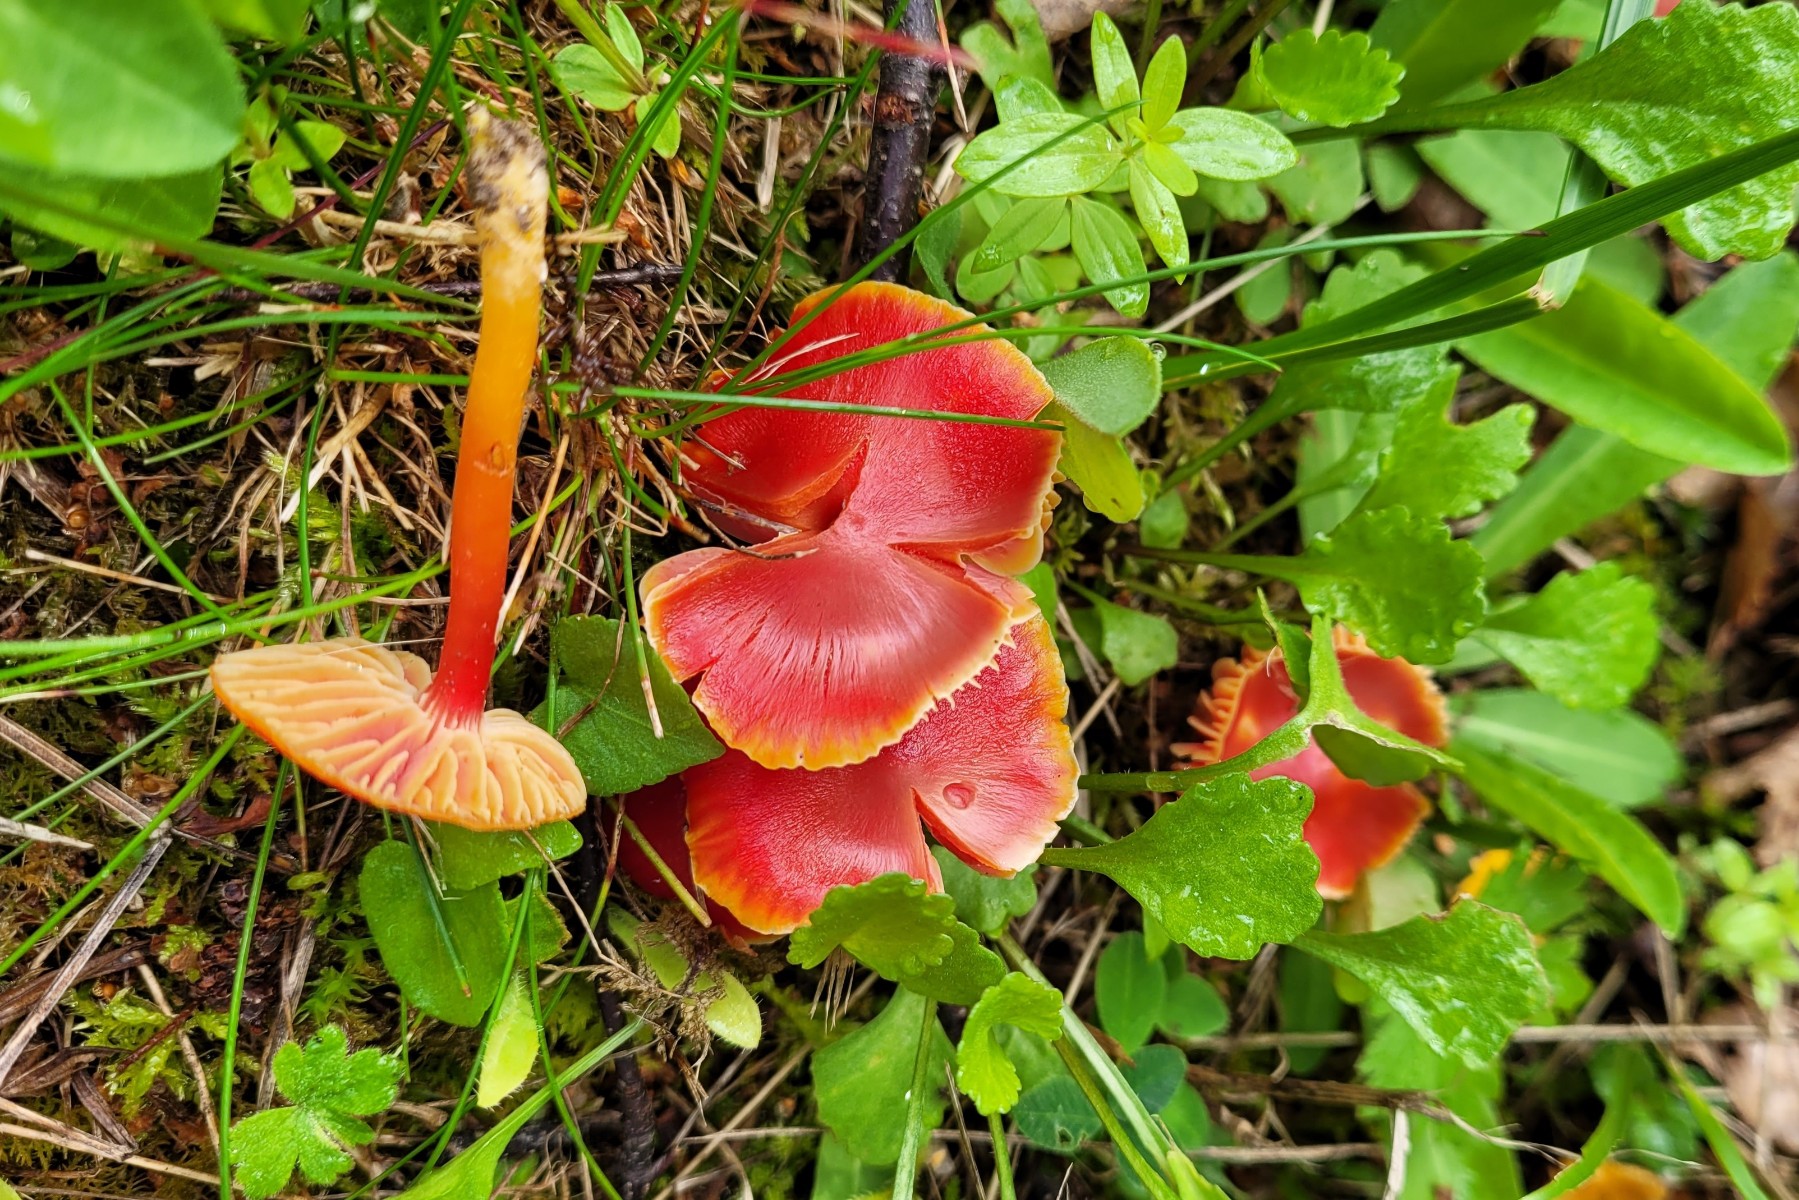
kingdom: Fungi
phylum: Basidiomycota
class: Agaricomycetes
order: Agaricales
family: Hygrophoraceae
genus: Hygrocybe
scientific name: Hygrocybe coccinea
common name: cinnober-vokshat
